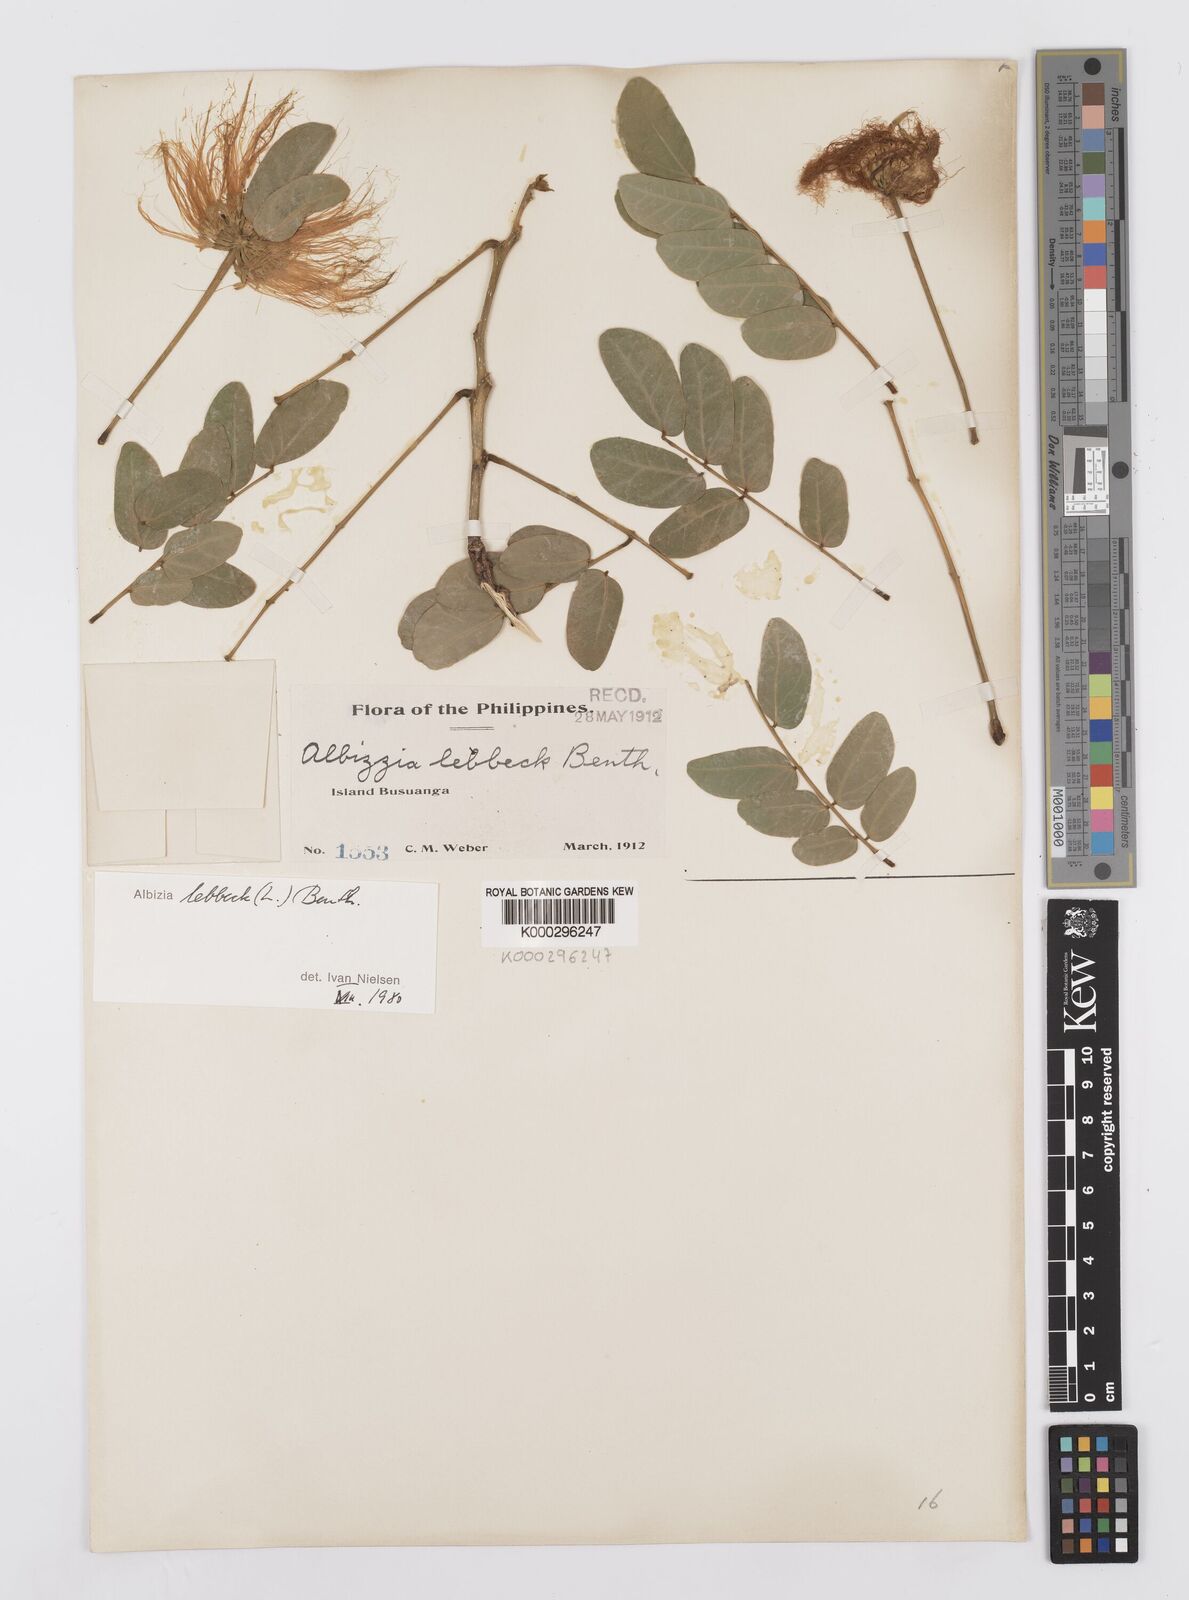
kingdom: Plantae
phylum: Tracheophyta
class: Magnoliopsida
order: Fabales
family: Fabaceae
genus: Albizia
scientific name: Albizia lebbeck
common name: Woman's tongue
